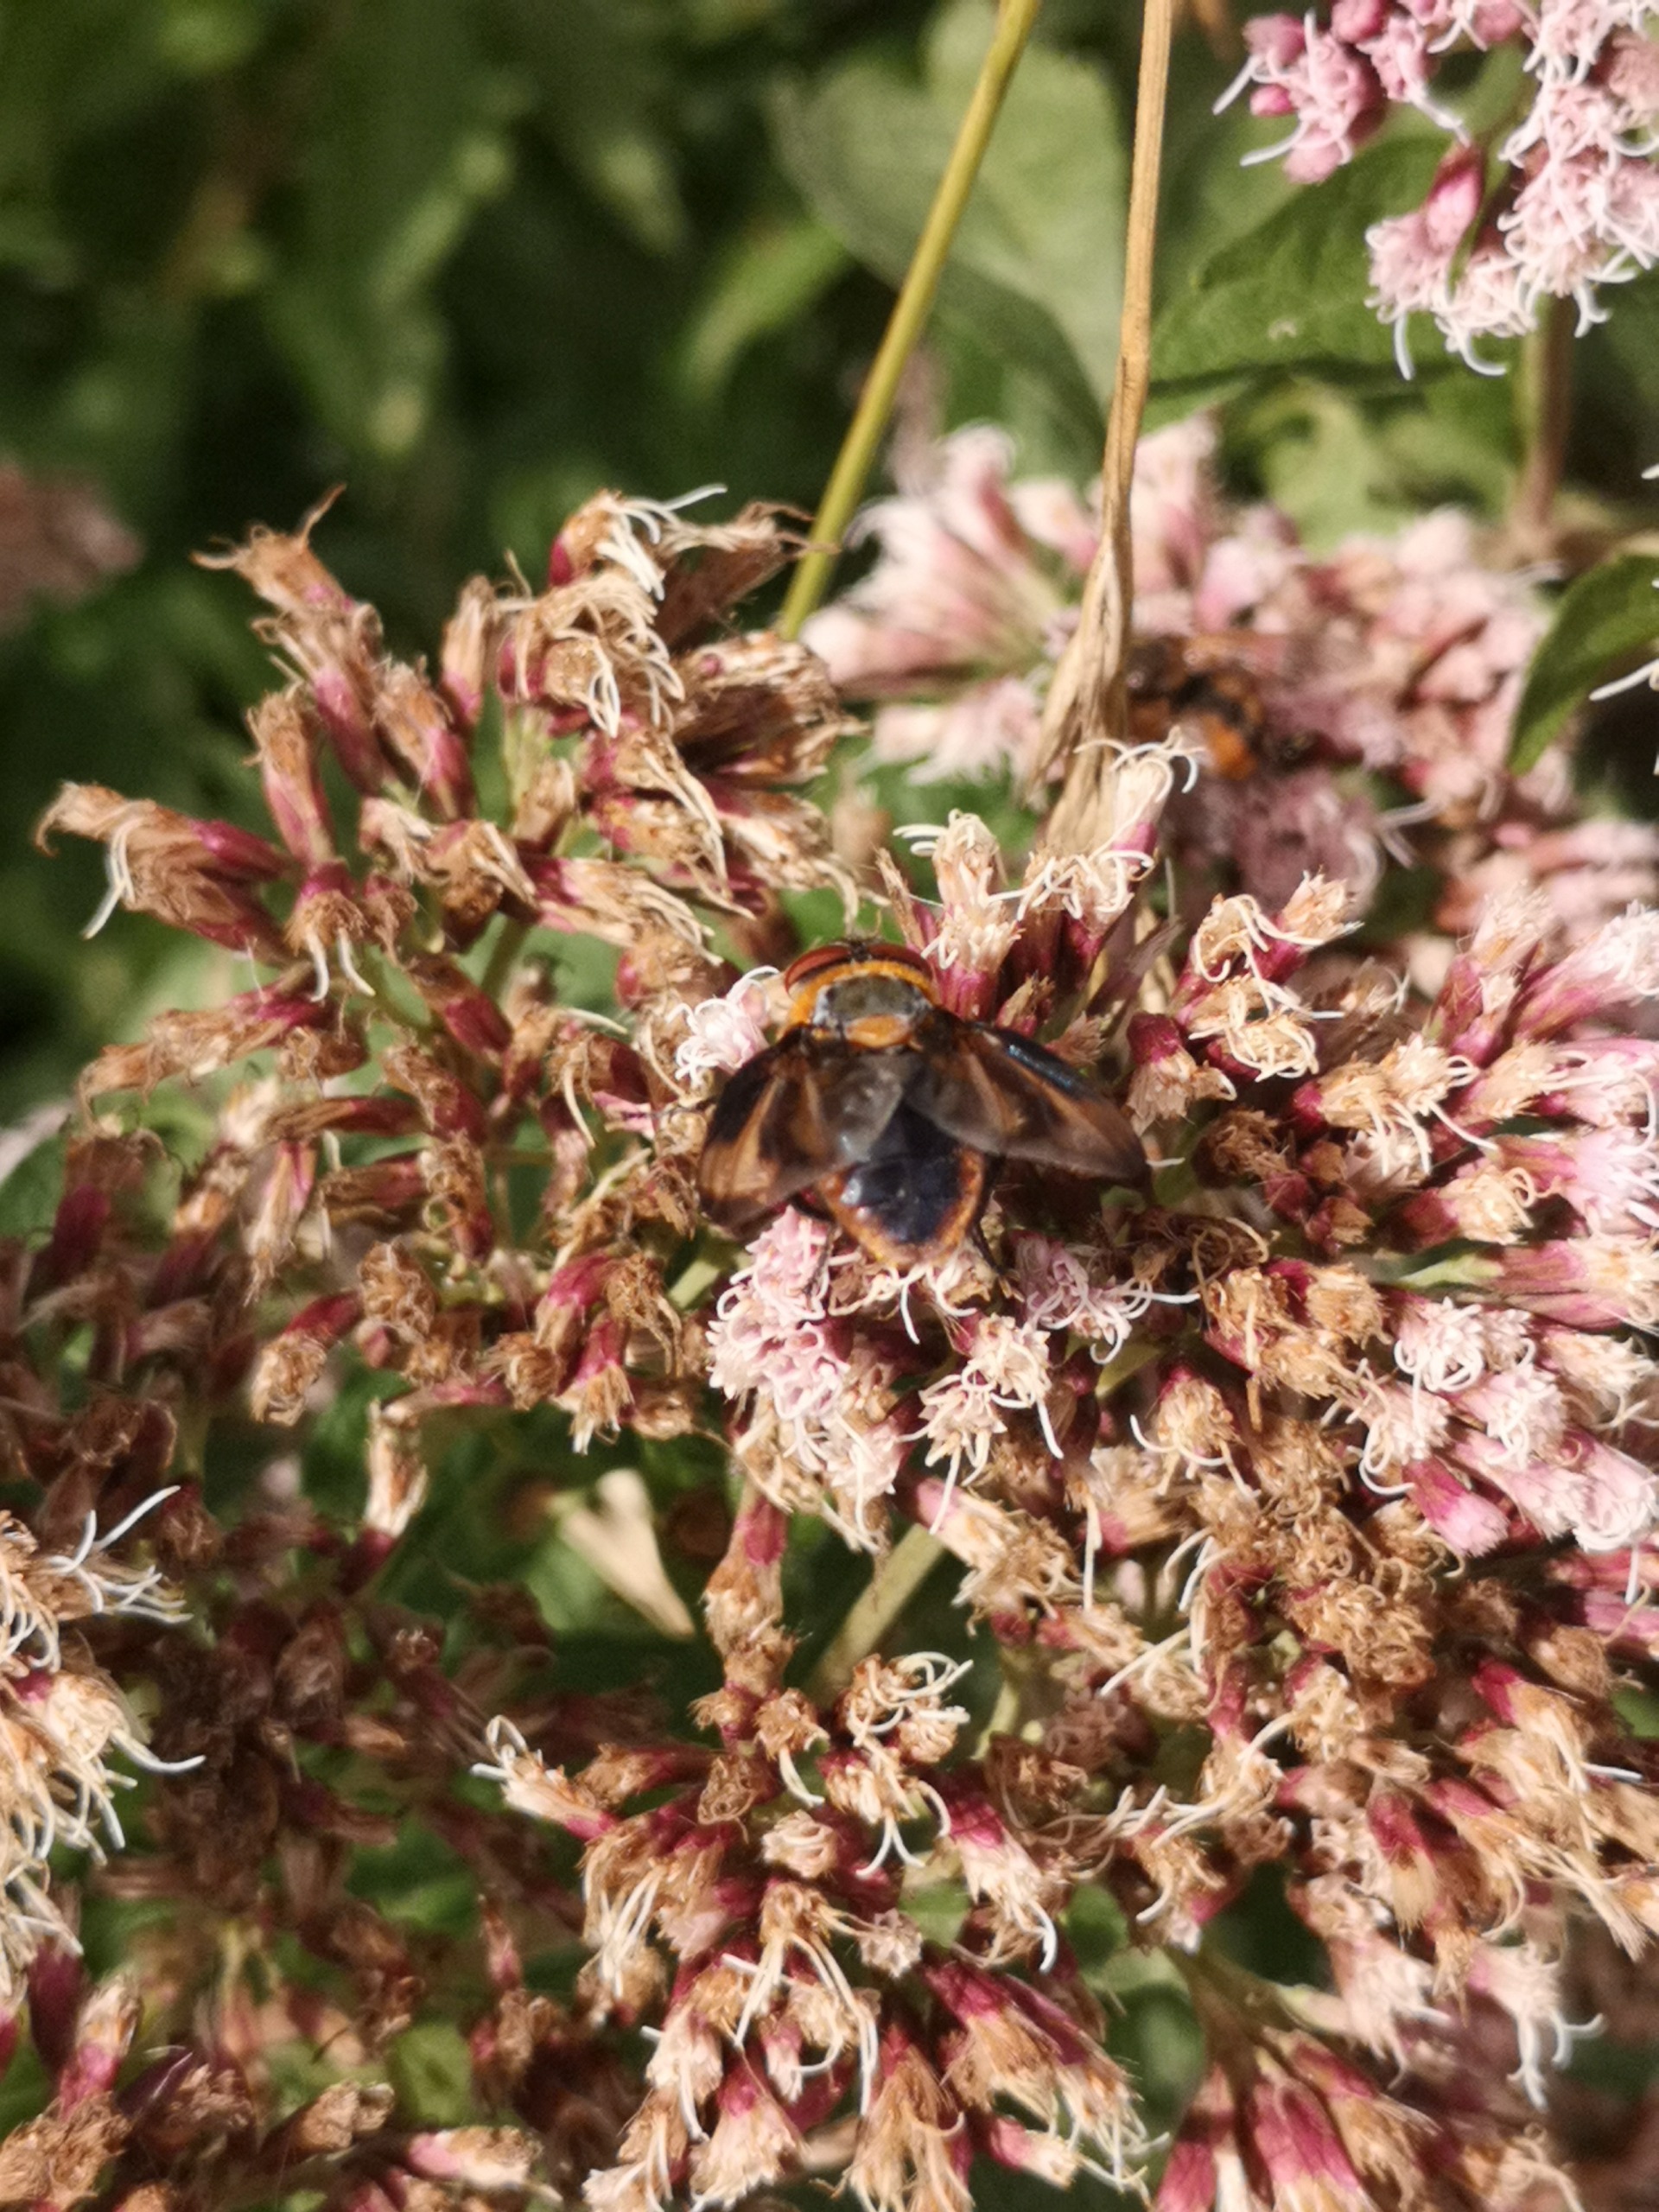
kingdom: Animalia
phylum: Arthropoda
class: Insecta
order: Diptera
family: Tachinidae
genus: Phasia
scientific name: Phasia hemiptera
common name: Blåvinget pragtsnylteflue
